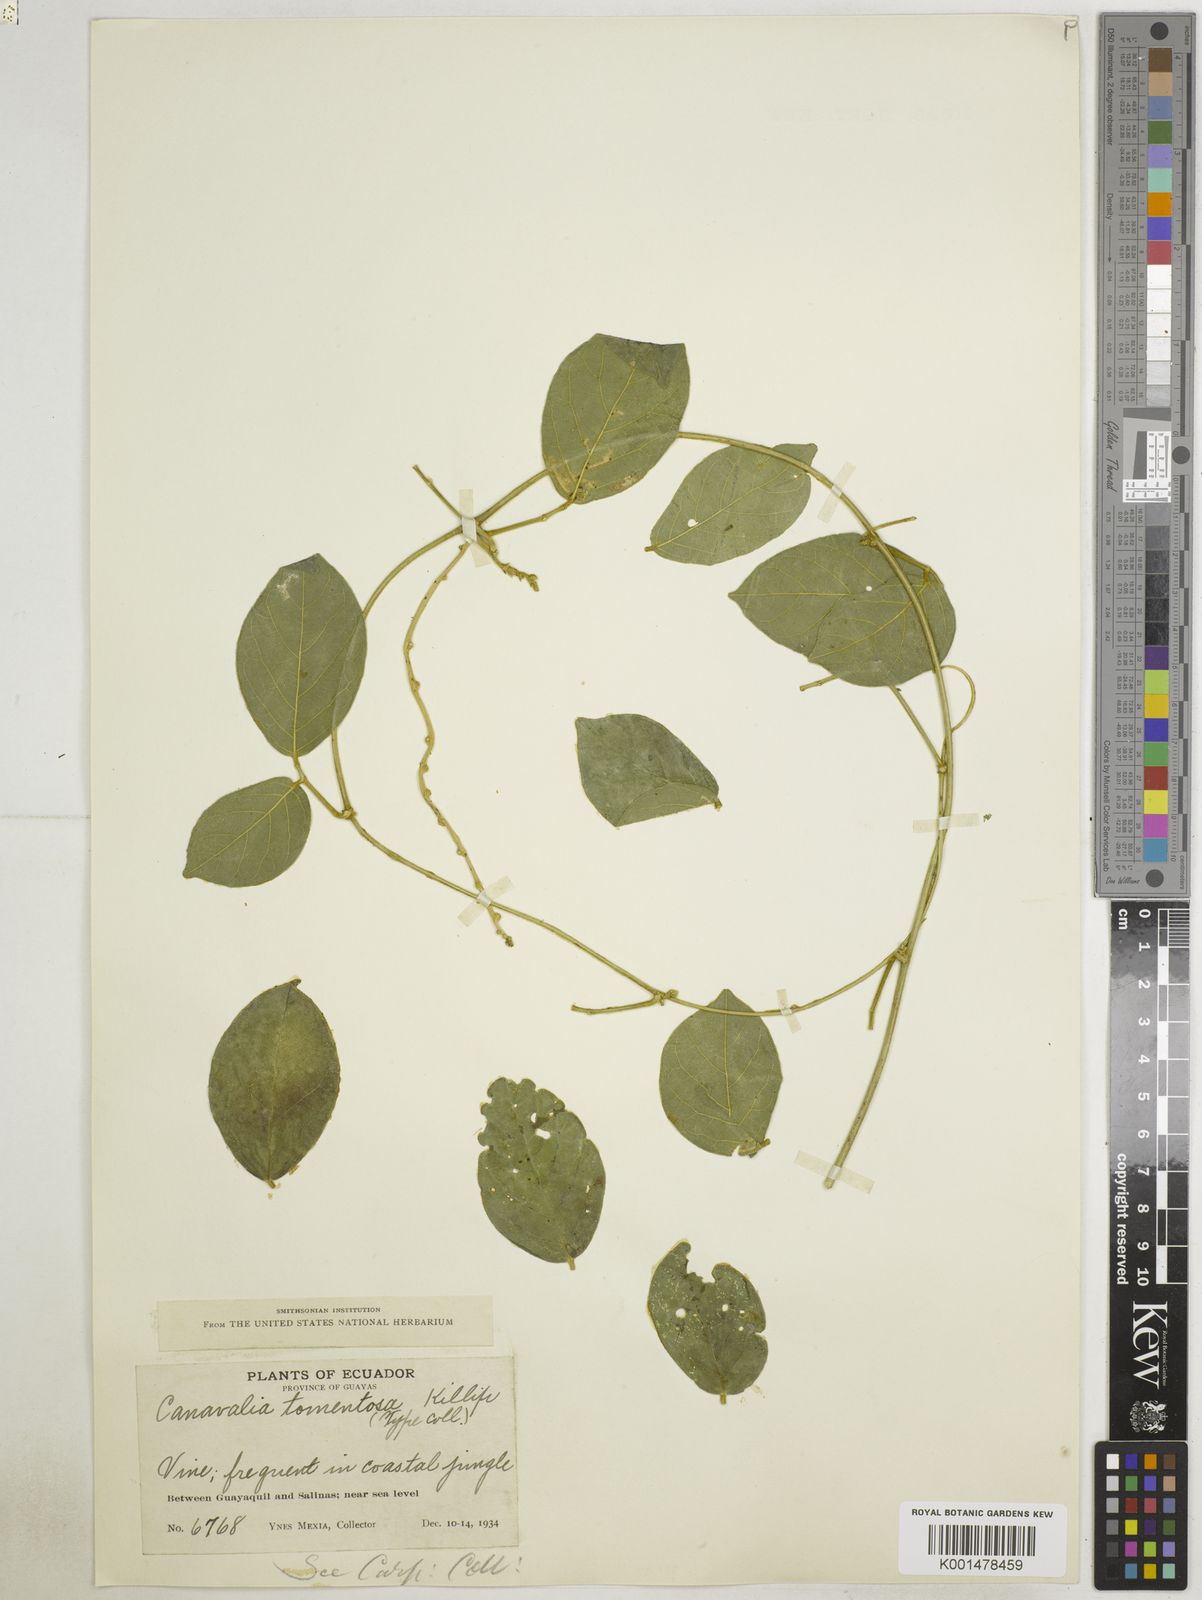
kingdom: Plantae
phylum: Tracheophyta
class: Magnoliopsida
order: Sapindales
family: Burseraceae
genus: Canarium
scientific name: Canarium littorale
